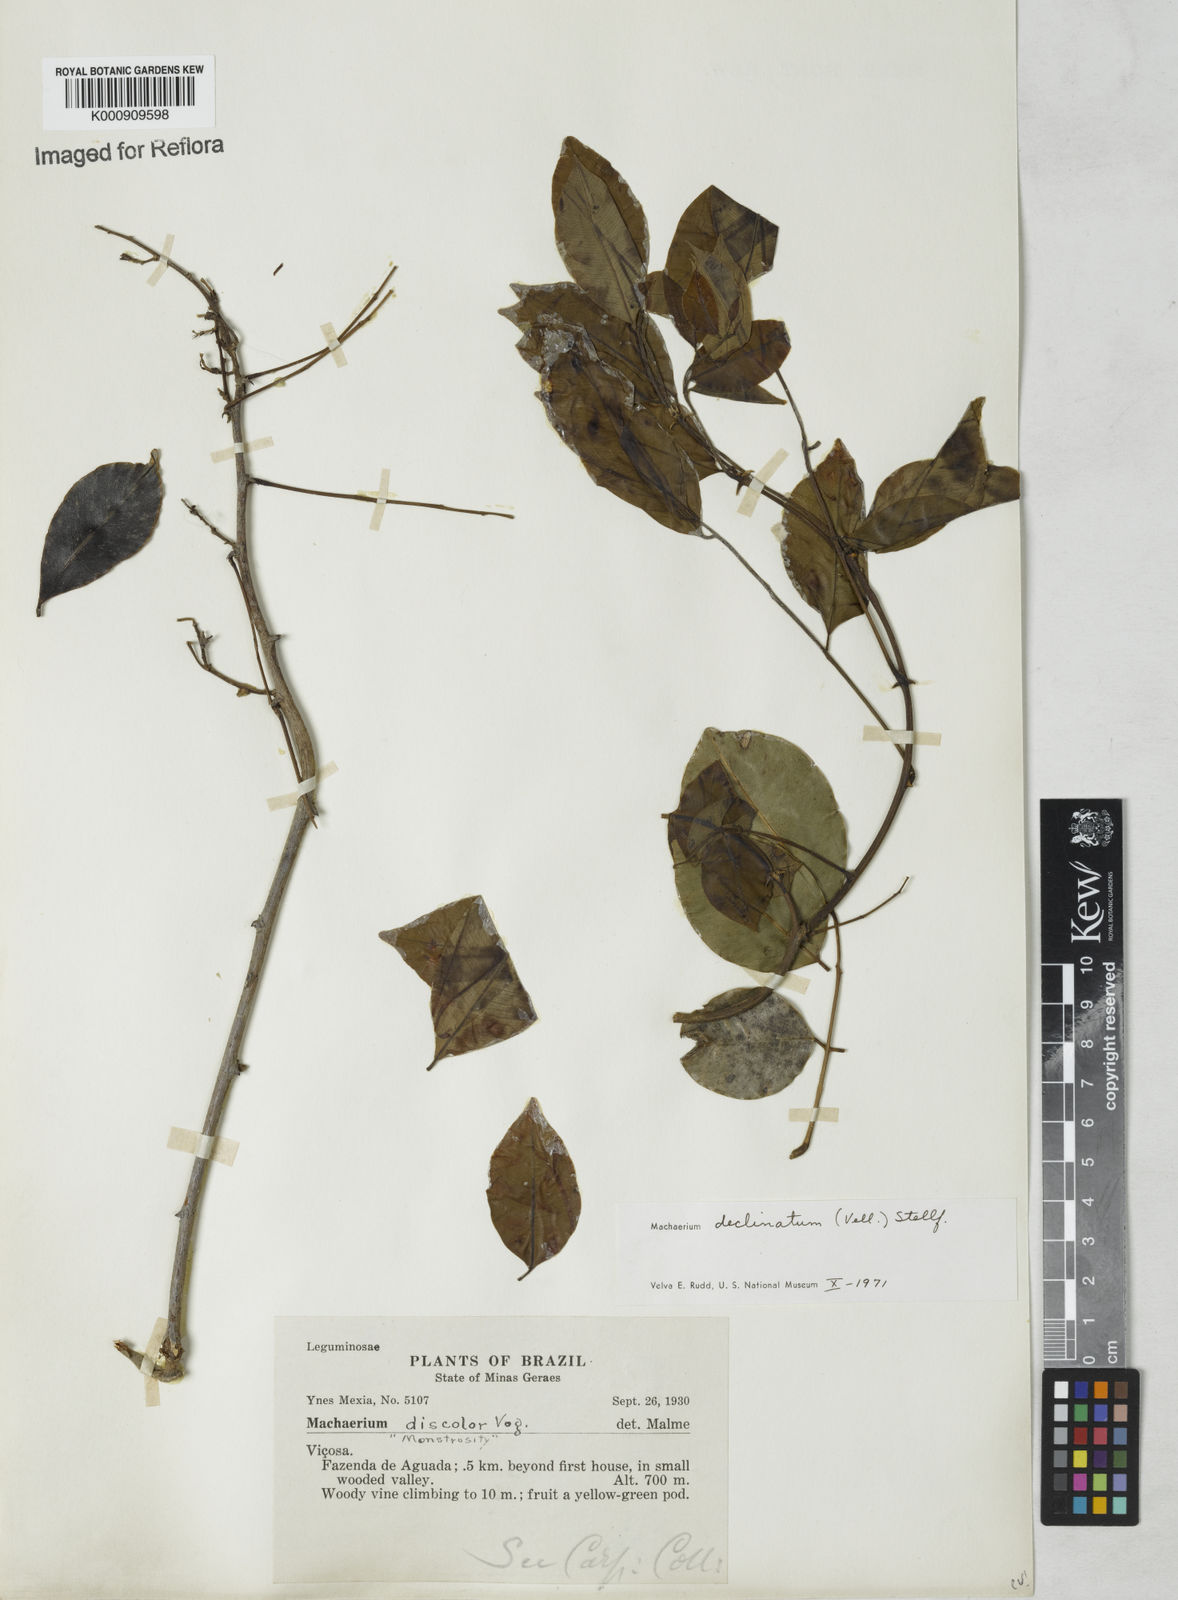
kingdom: Plantae
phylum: Tracheophyta
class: Magnoliopsida
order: Fabales
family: Fabaceae
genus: Machaerium
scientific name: Machaerium declinatum
